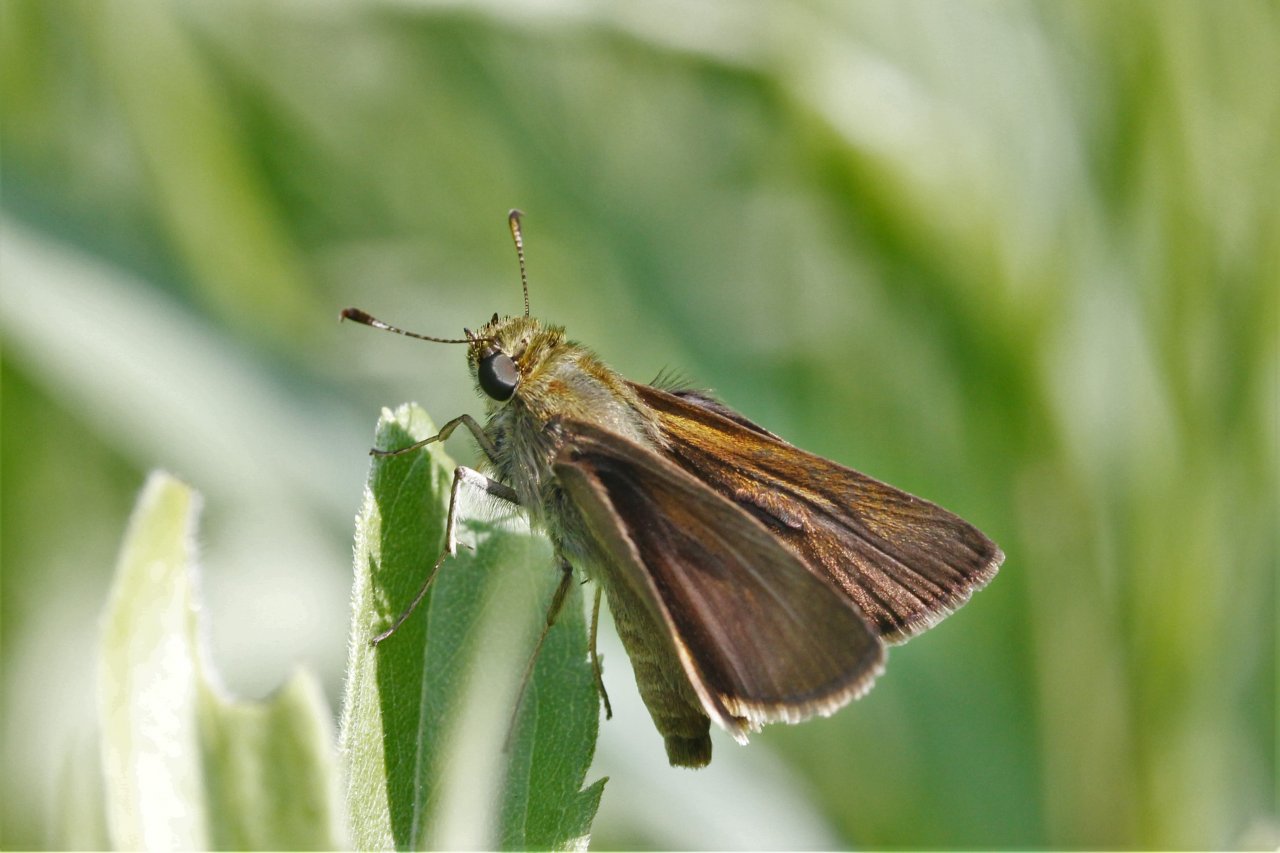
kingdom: Animalia
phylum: Arthropoda
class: Insecta
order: Lepidoptera
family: Hesperiidae
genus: Euphyes
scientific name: Euphyes vestris
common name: Dun Skipper
